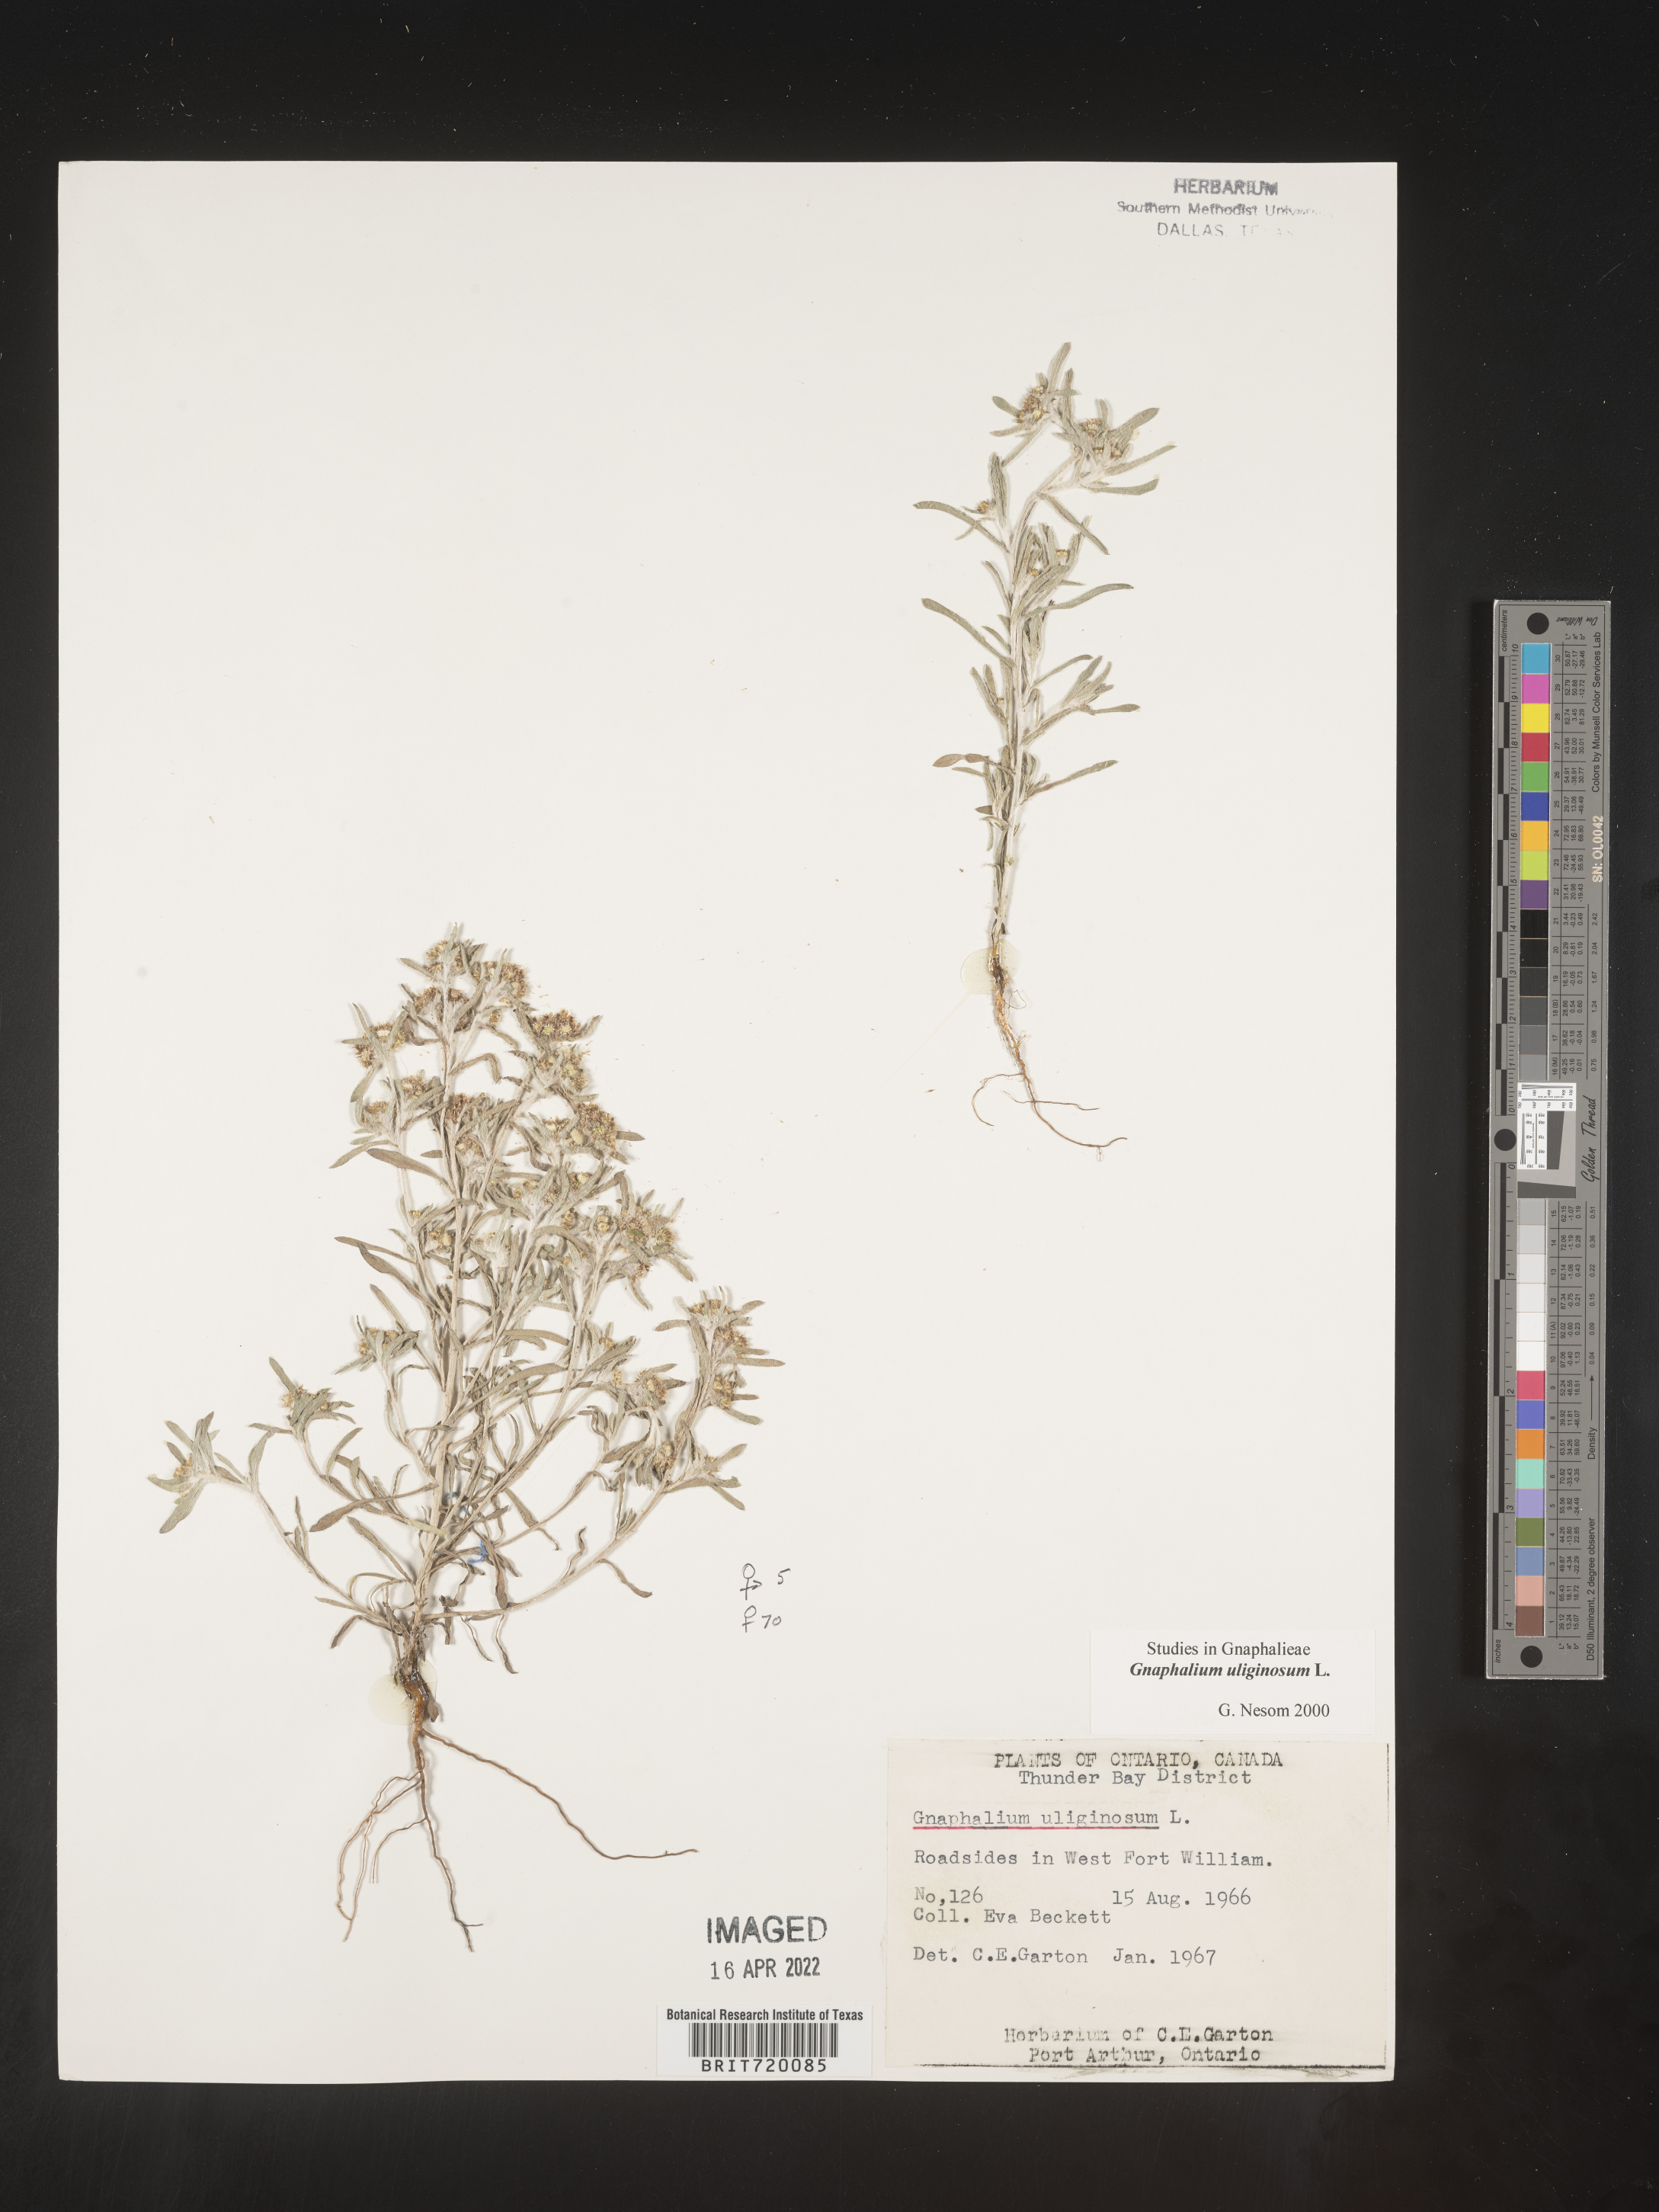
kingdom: Plantae
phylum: Tracheophyta
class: Magnoliopsida
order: Asterales
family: Asteraceae
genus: Gnaphalium
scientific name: Gnaphalium uliginosum
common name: Marsh cudweed
